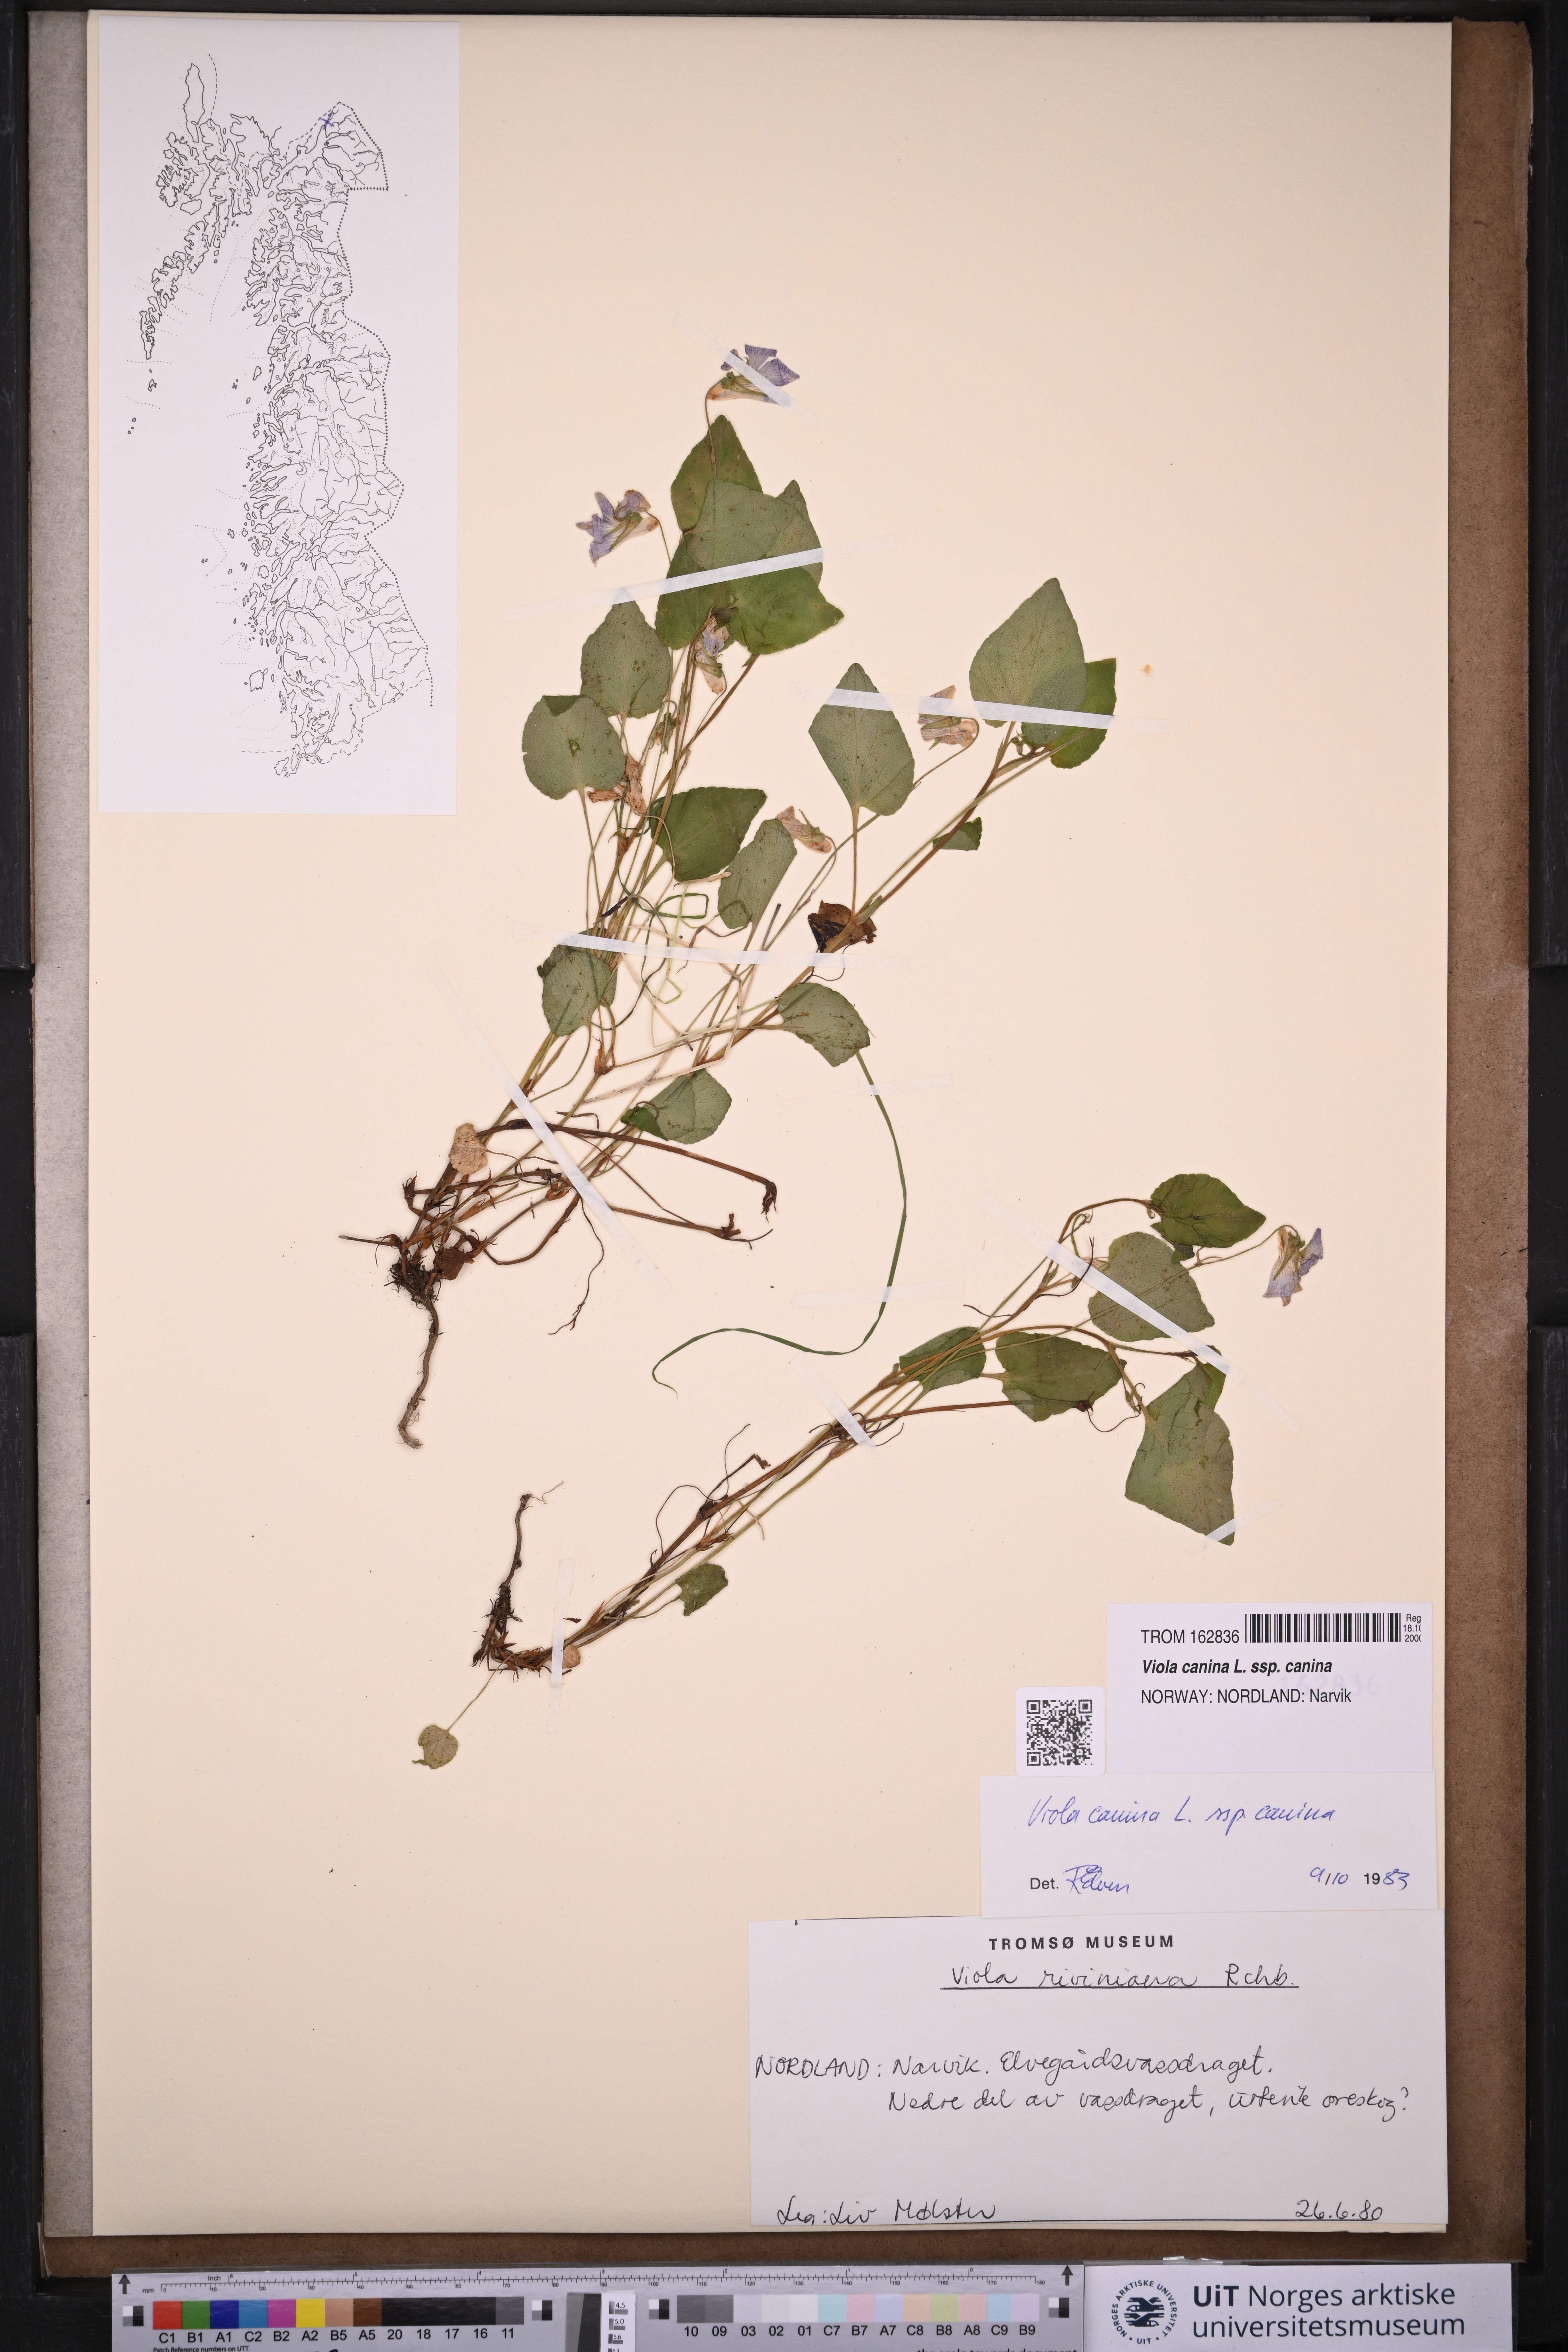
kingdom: Plantae
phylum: Tracheophyta
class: Magnoliopsida
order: Malpighiales
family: Violaceae
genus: Viola
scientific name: Viola canina
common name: Heath dog-violet
